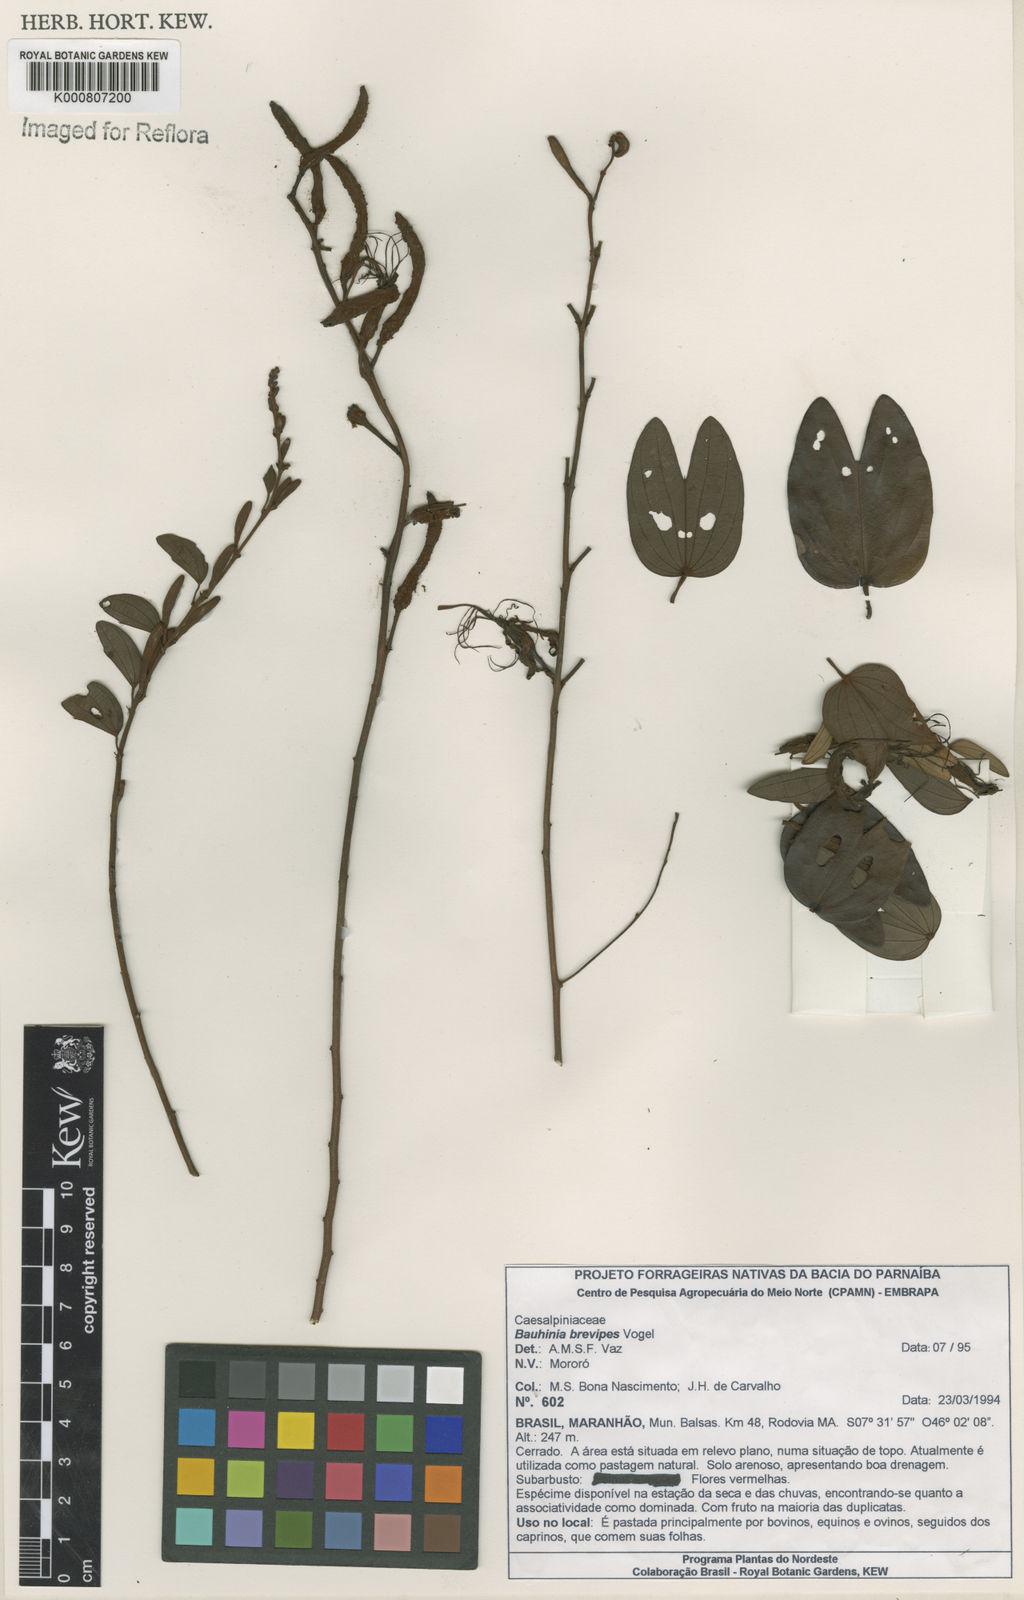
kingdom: Plantae
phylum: Tracheophyta
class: Magnoliopsida
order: Fabales
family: Fabaceae
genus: Bauhinia
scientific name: Bauhinia brevipes
